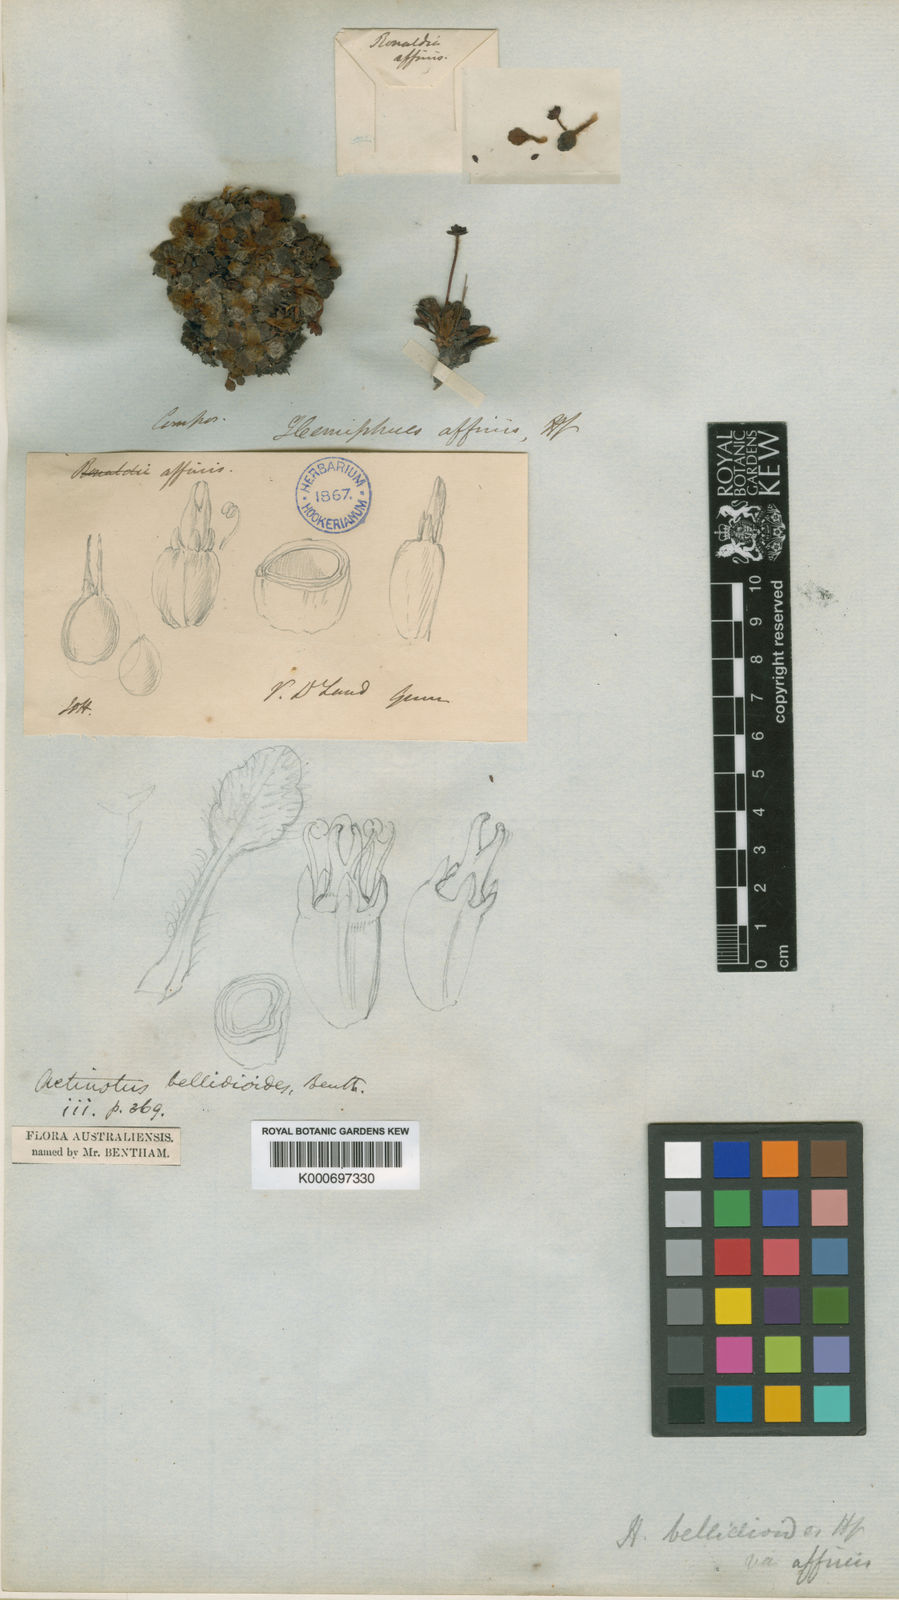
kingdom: Plantae
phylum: Tracheophyta
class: Magnoliopsida
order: Apiales
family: Apiaceae
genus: Actinotus
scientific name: Actinotus bellidioides
